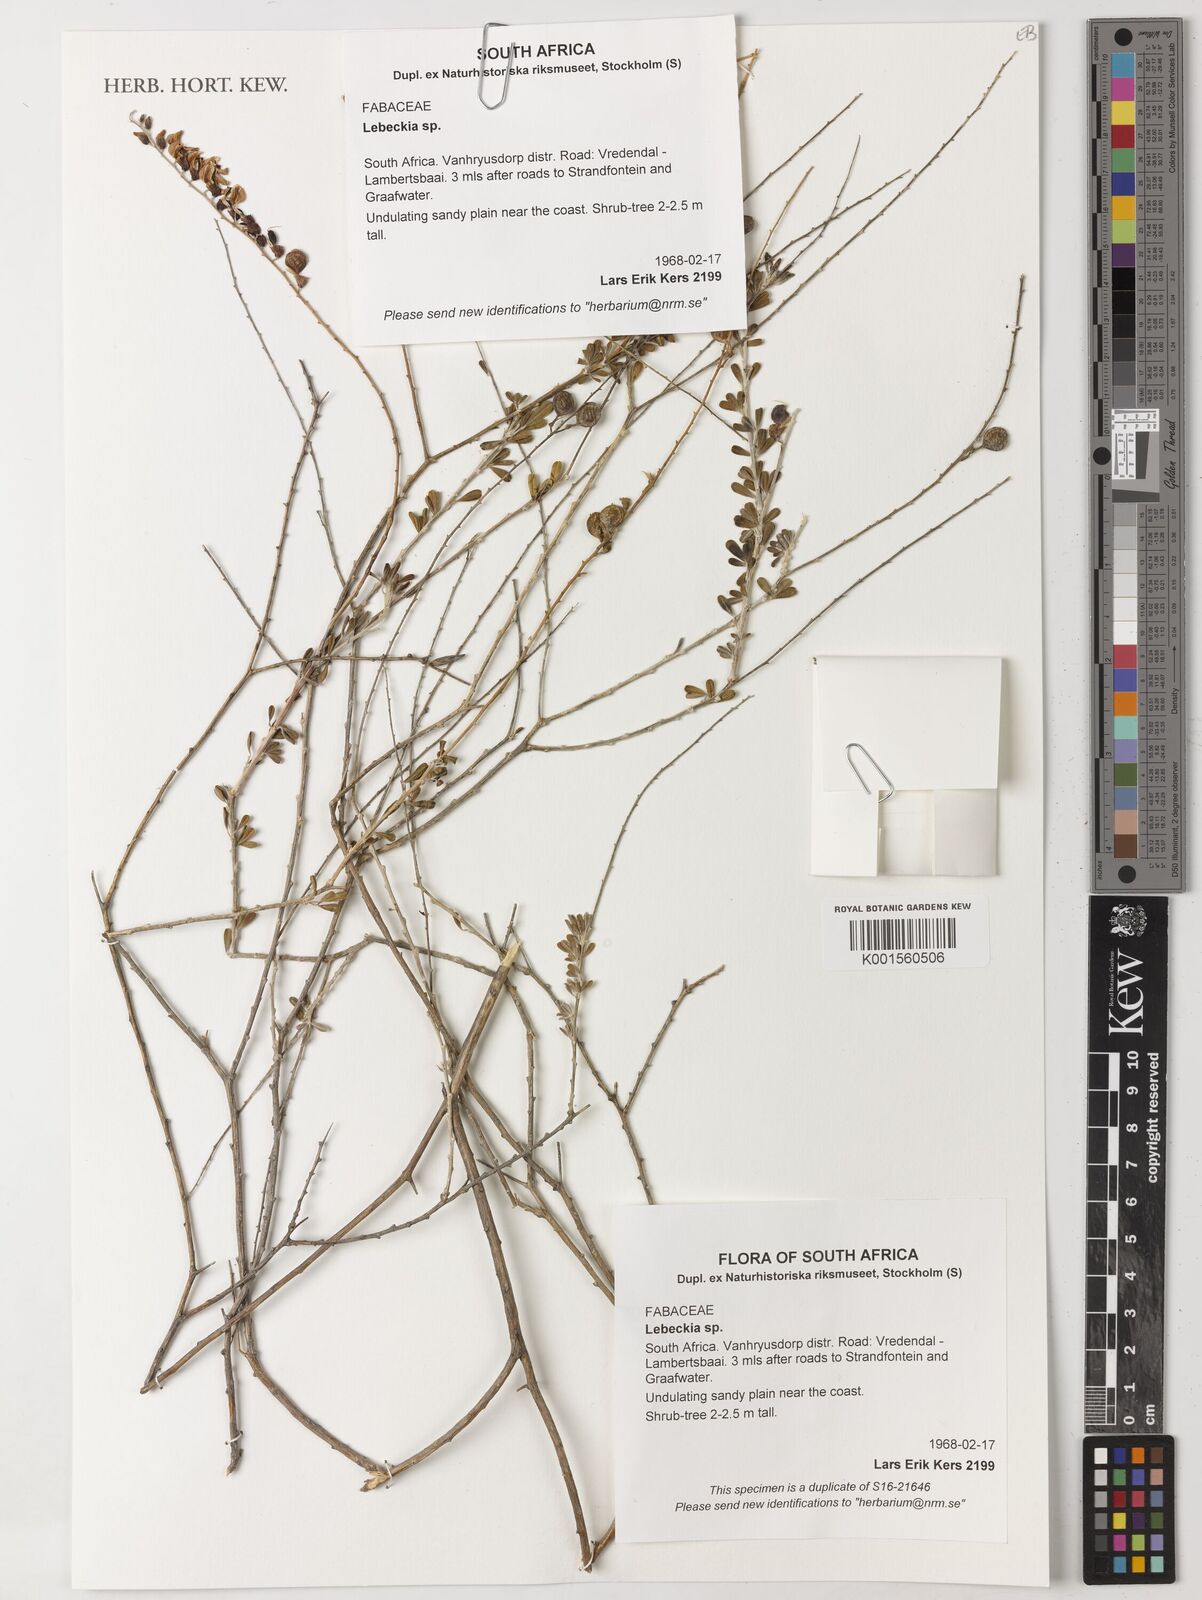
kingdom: Plantae
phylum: Tracheophyta
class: Magnoliopsida
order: Fabales
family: Fabaceae
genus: Lebeckia
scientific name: Lebeckia
